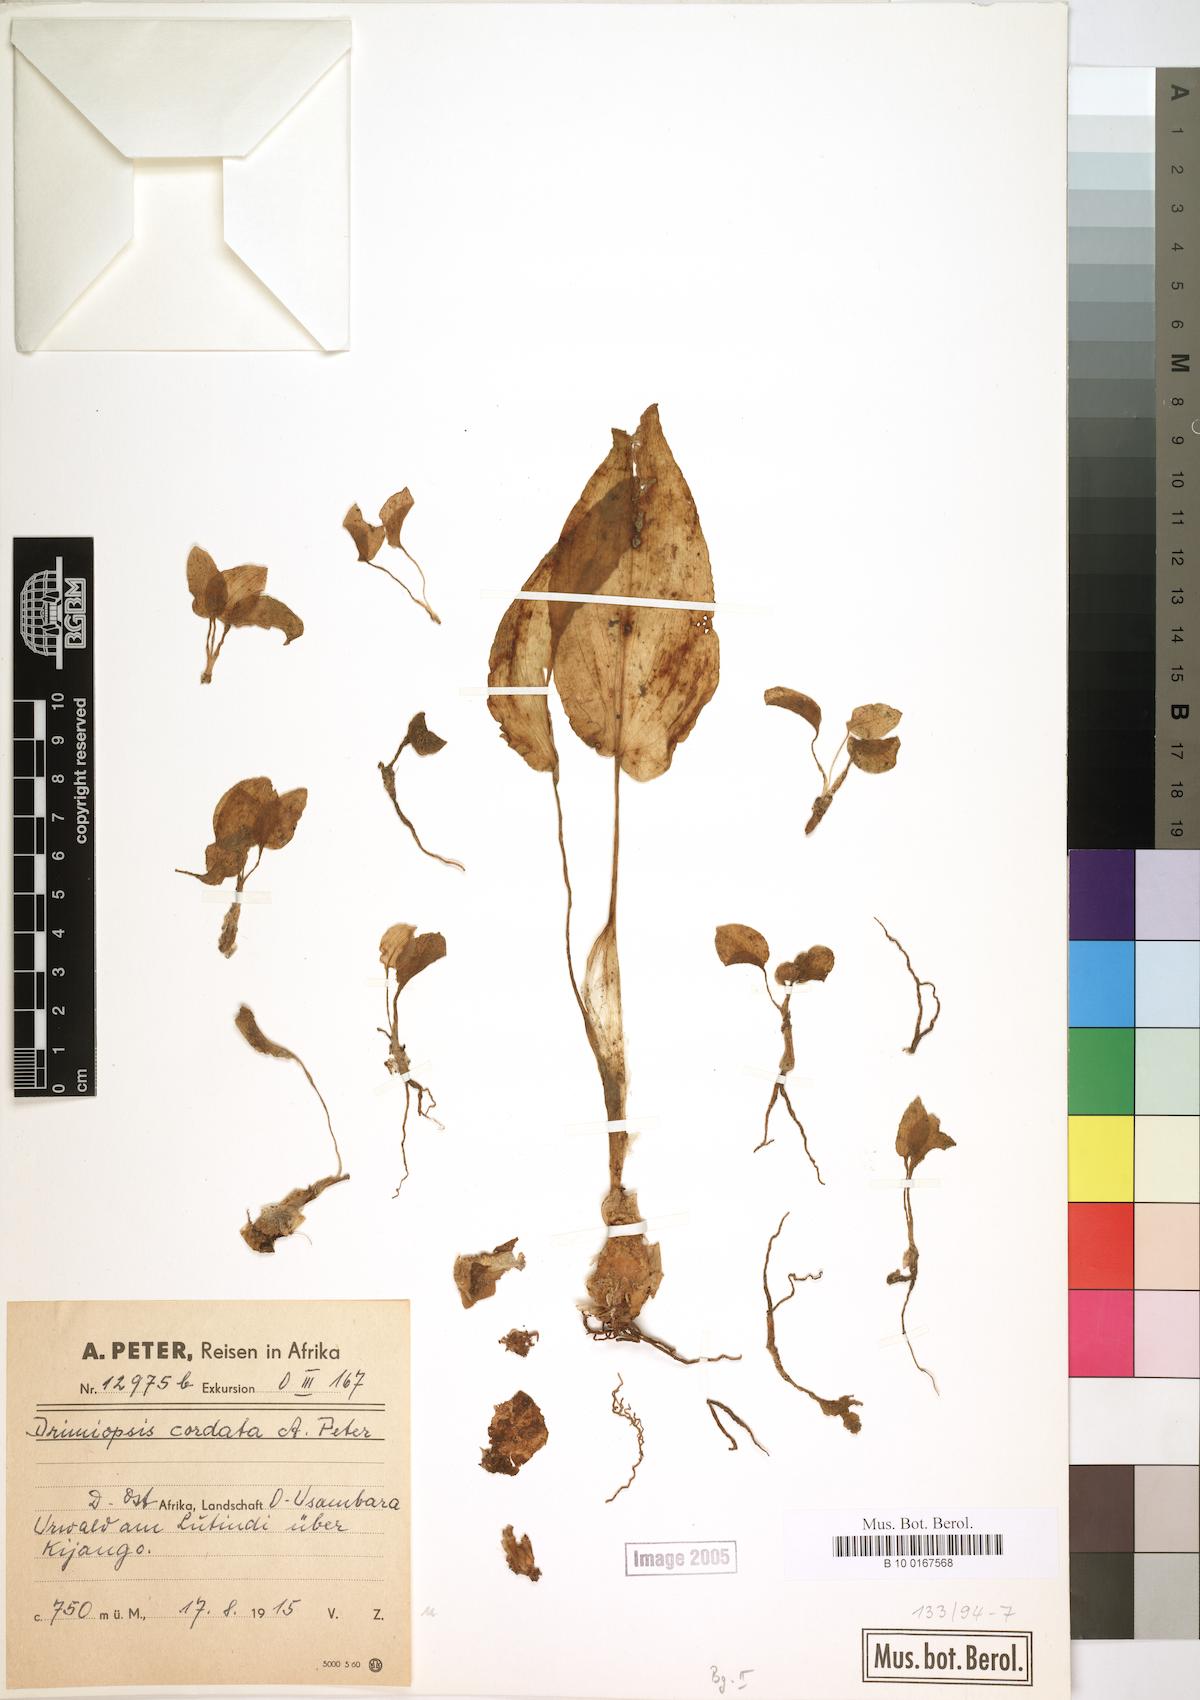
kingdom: Plantae
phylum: Tracheophyta
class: Liliopsida
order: Asparagales
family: Asparagaceae
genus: Drimiopsis
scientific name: Drimiopsis
